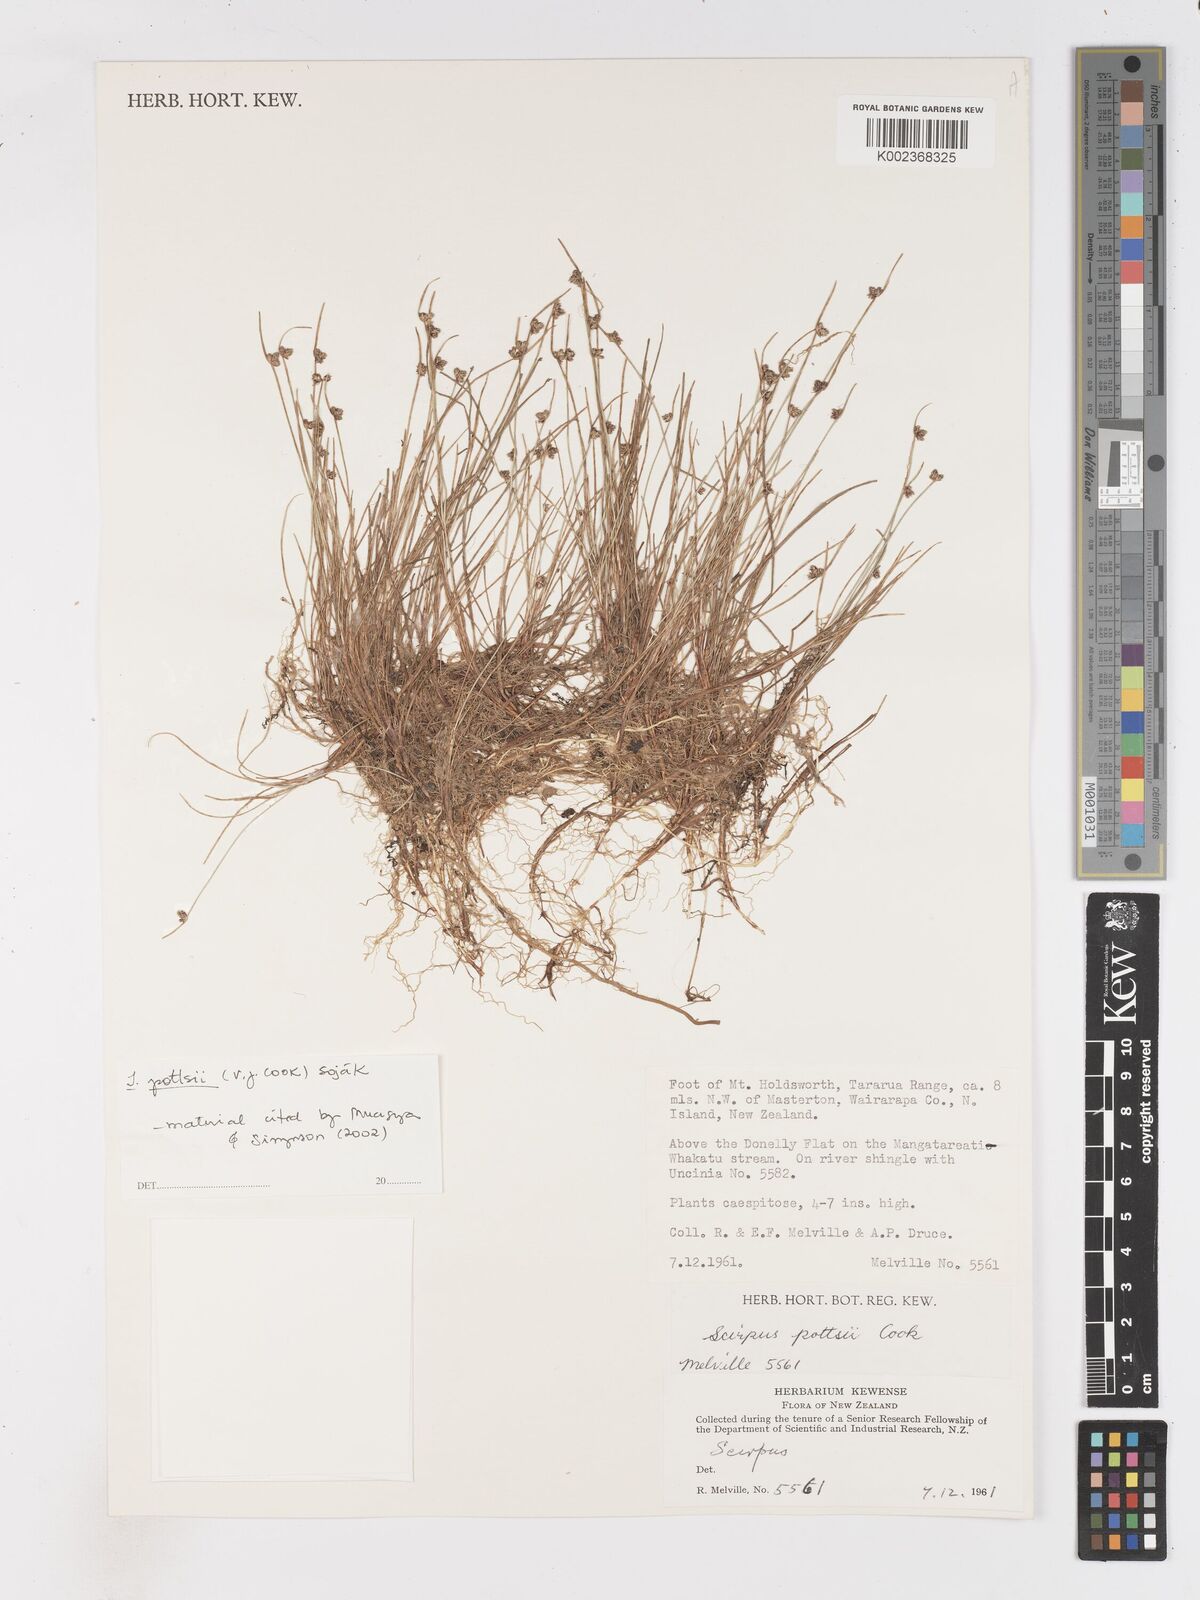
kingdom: Plantae
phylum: Tracheophyta
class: Liliopsida
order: Poales
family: Cyperaceae
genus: Isolepis
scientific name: Isolepis pottsii
